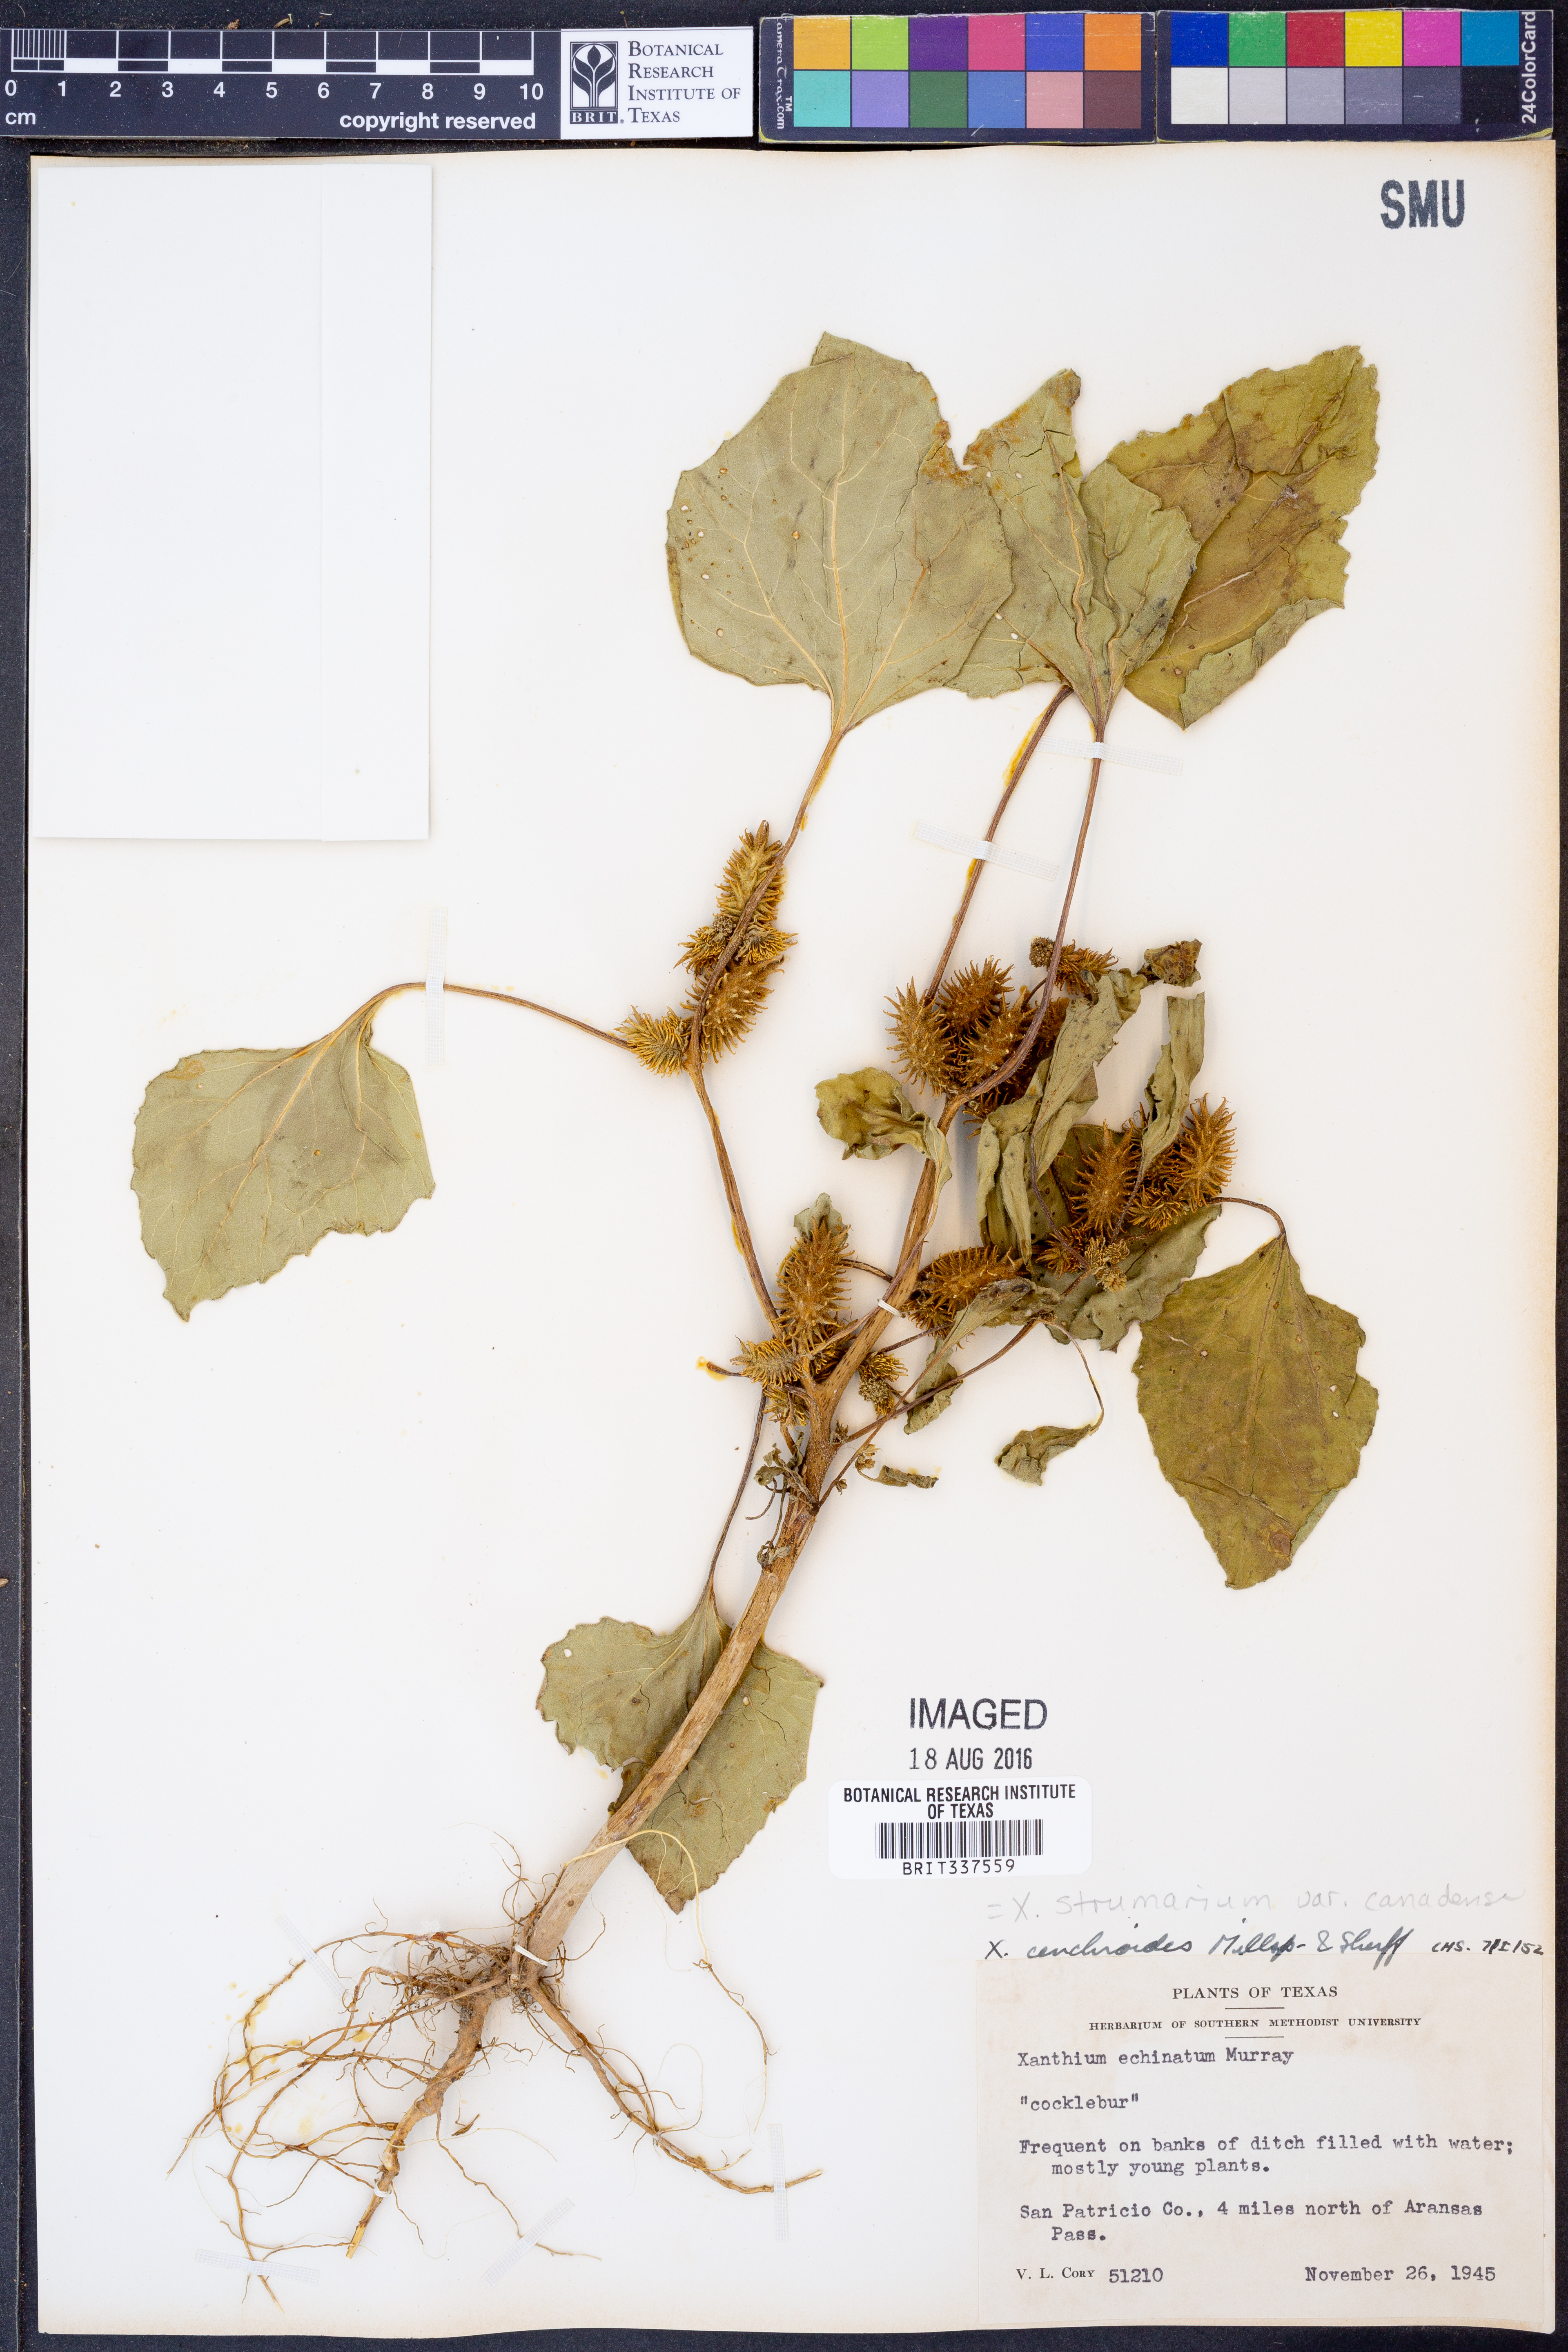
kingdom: Plantae
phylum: Tracheophyta
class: Magnoliopsida
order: Asterales
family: Asteraceae
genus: Xanthium
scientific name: Xanthium orientale
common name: Californian burr
